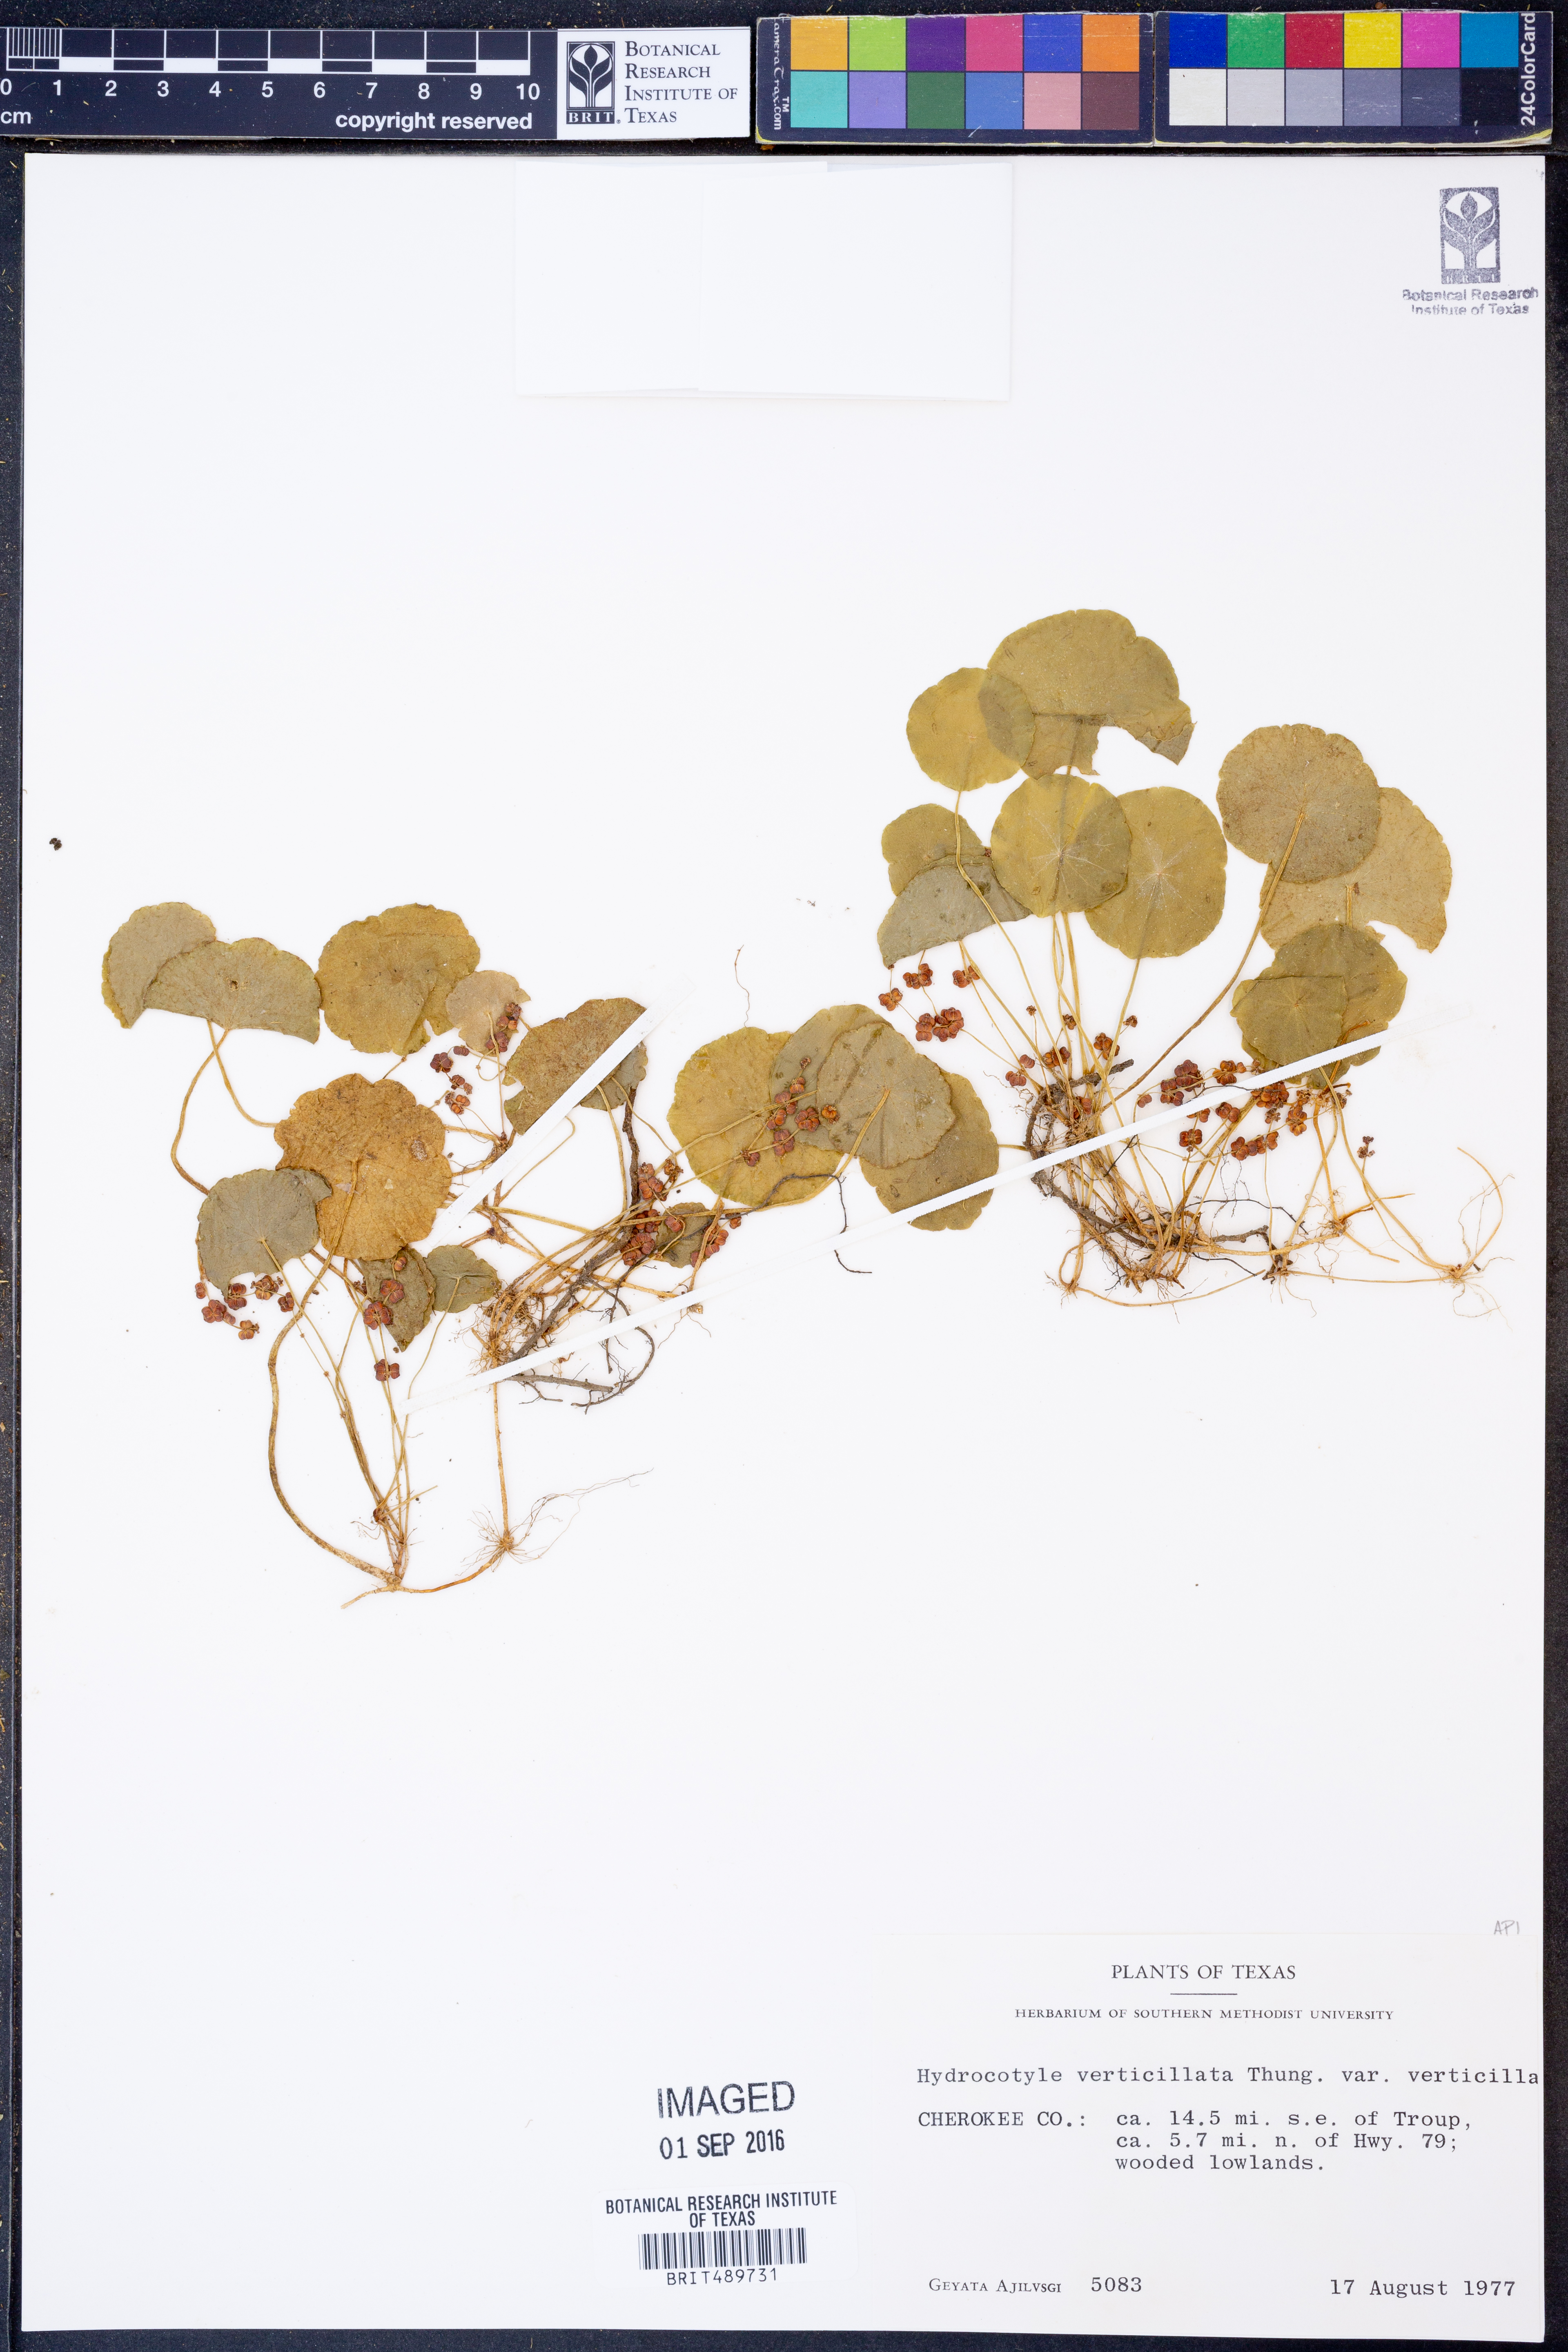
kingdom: Plantae
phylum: Tracheophyta
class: Magnoliopsida
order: Apiales
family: Araliaceae
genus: Hydrocotyle
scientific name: Hydrocotyle verticillata
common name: Whorled marshpennywort
